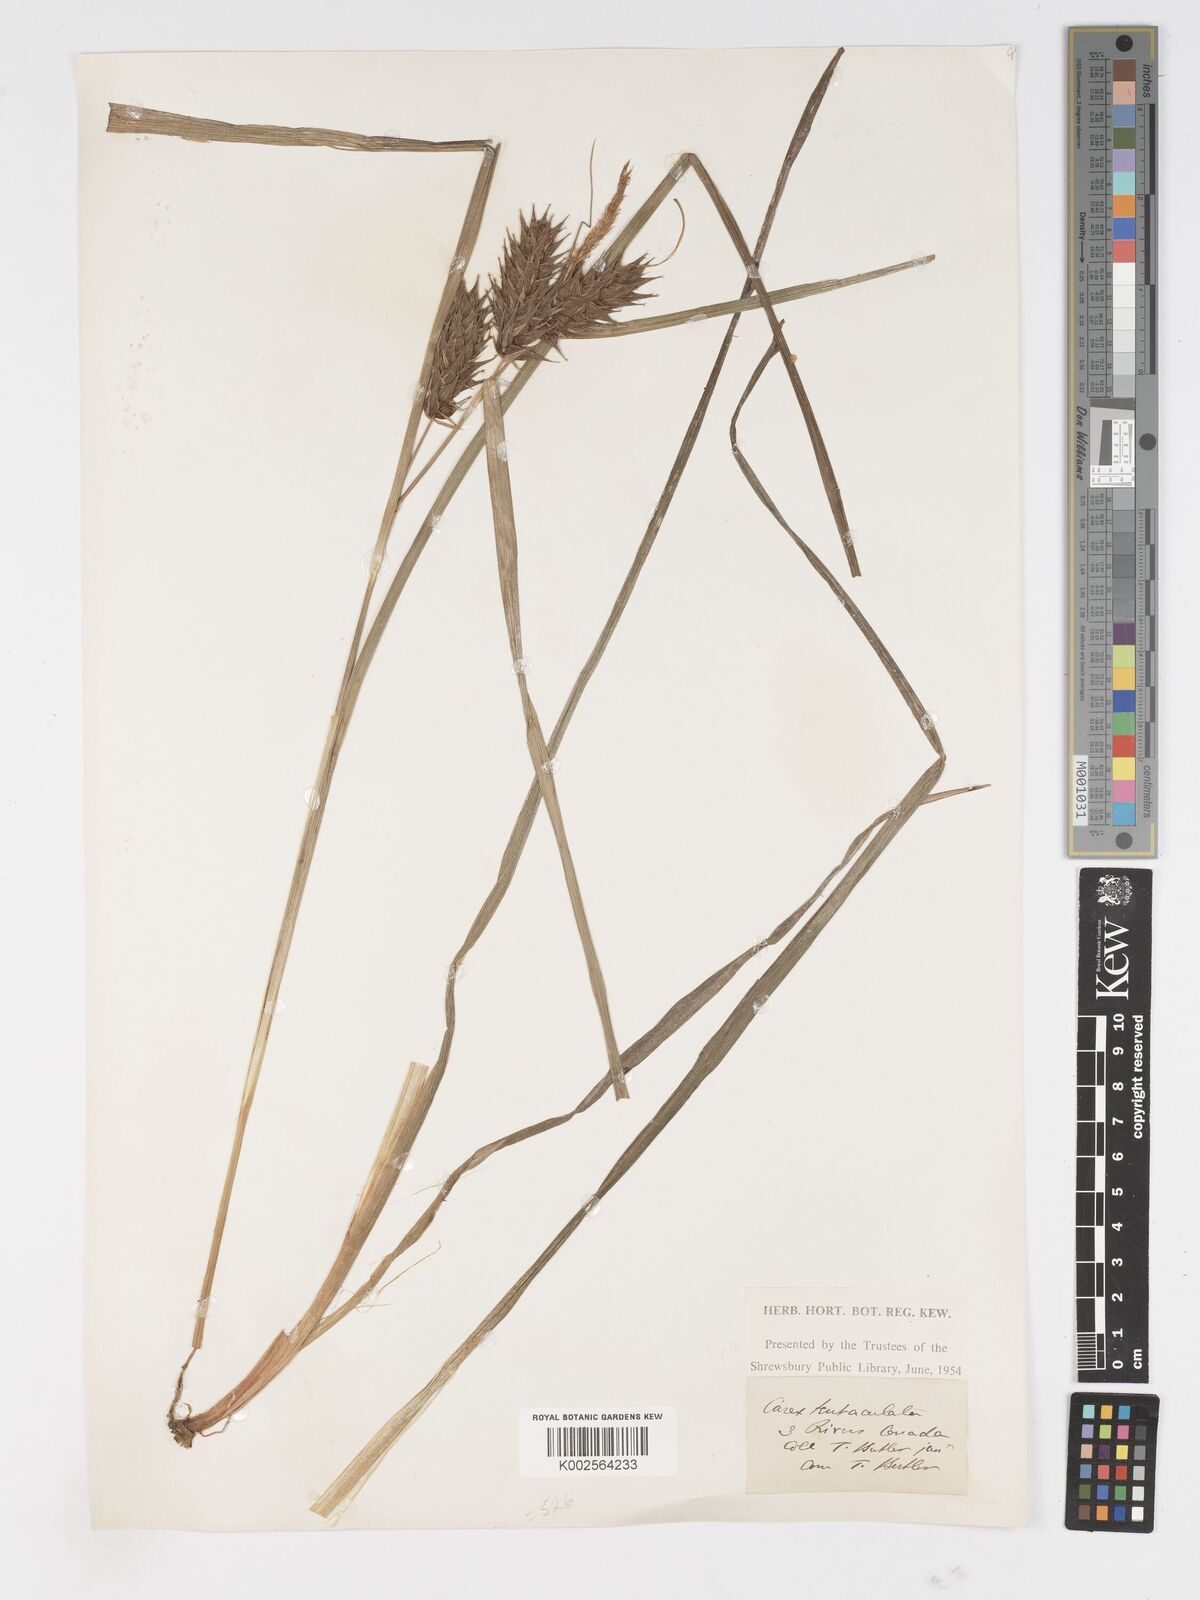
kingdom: Plantae
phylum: Tracheophyta
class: Liliopsida
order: Poales
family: Cyperaceae
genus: Carex
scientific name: Carex lurida
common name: Sallow sedge
